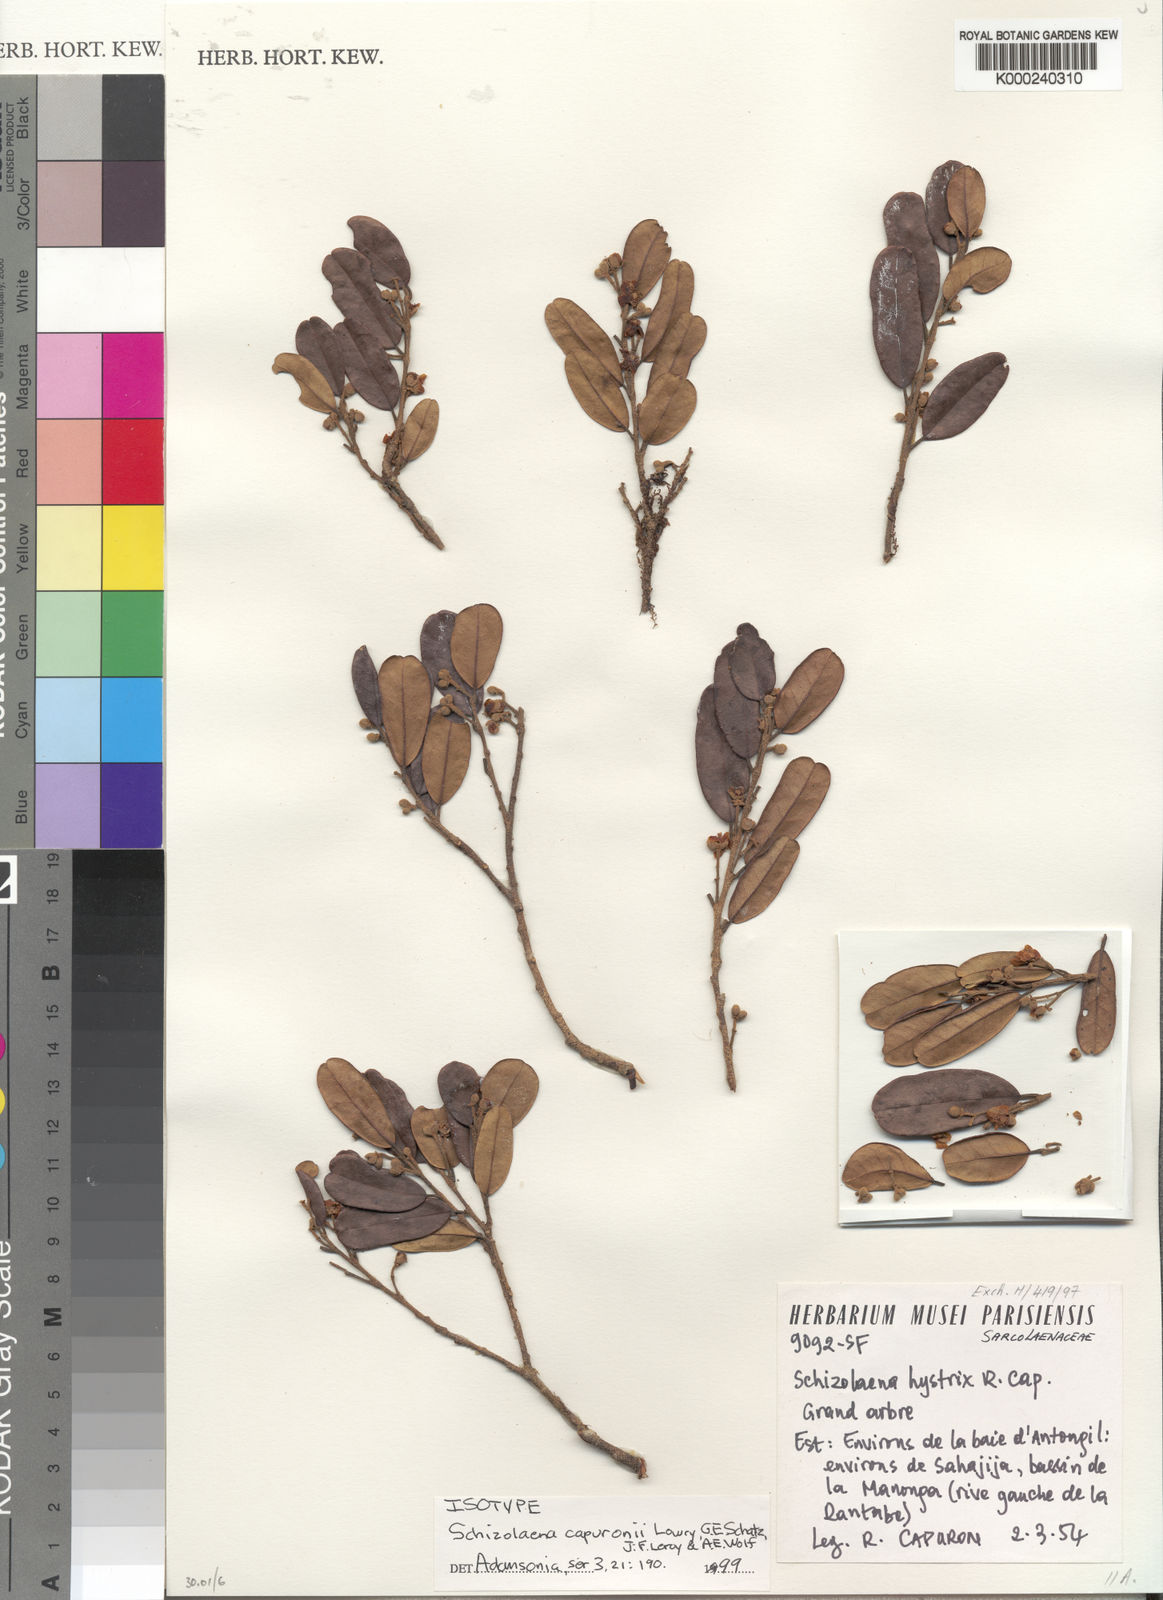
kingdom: Plantae
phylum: Tracheophyta
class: Magnoliopsida
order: Malvales
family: Sarcolaenaceae
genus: Schizolaena
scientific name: Schizolaena capuronii
